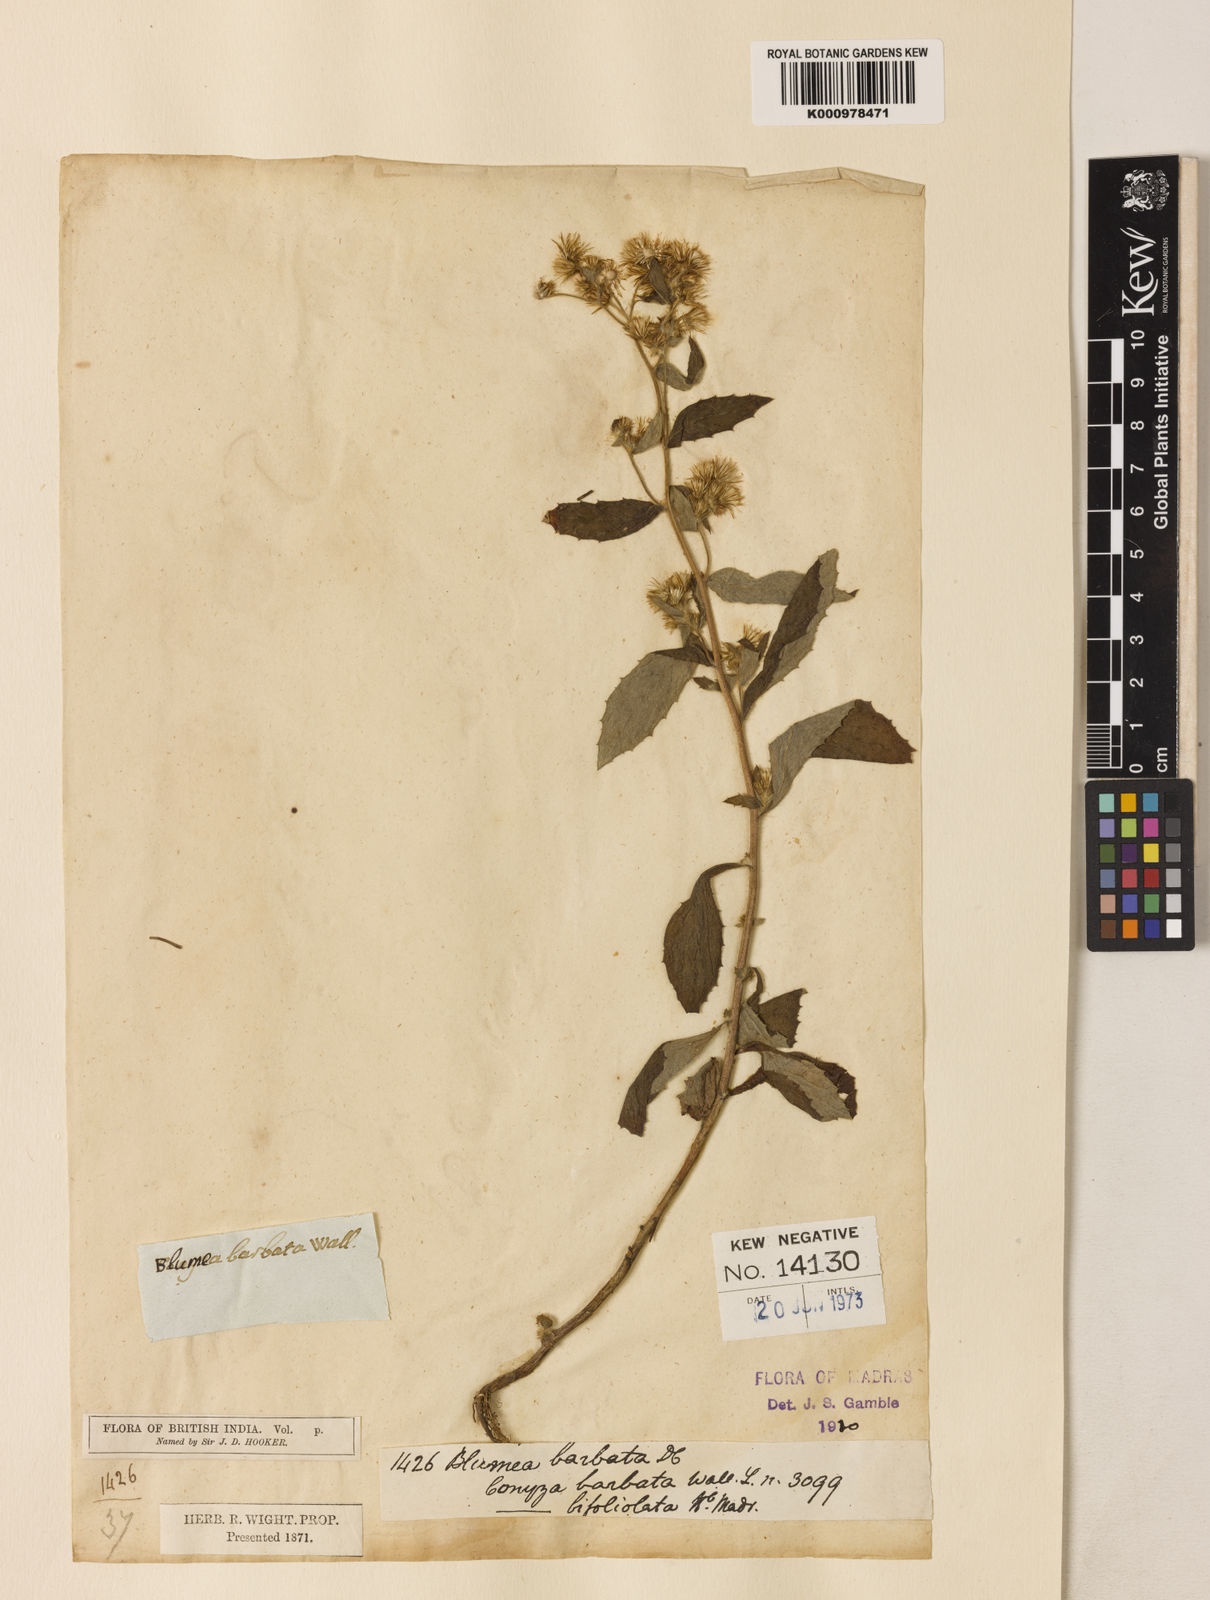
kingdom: Plantae
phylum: Tracheophyta
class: Magnoliopsida
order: Asterales
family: Asteraceae
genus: Blumea
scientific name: Blumea barbata
